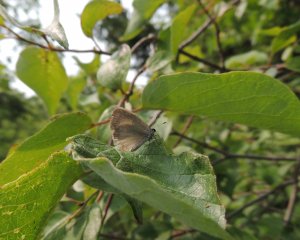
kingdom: Animalia
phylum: Arthropoda
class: Insecta
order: Lepidoptera
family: Lycaenidae
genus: Celastrina
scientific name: Celastrina serotina
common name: Cherry Gall Azure
